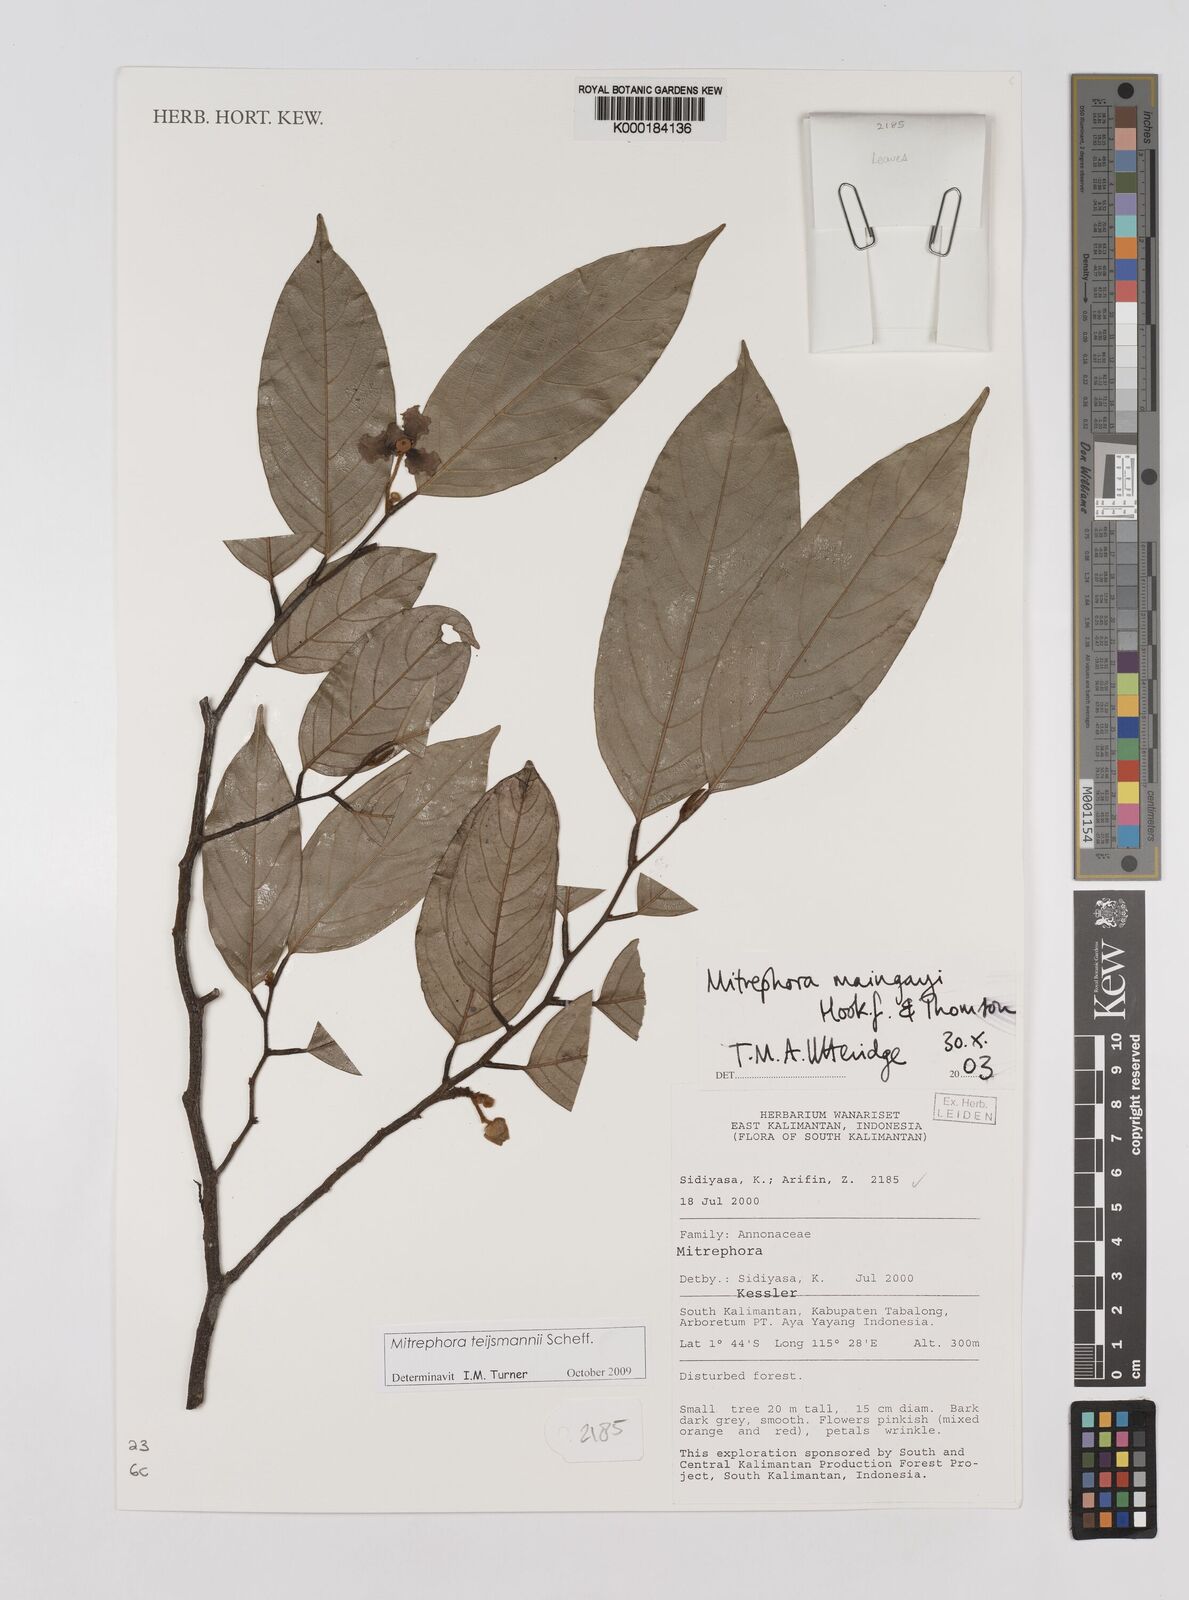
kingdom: Plantae
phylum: Tracheophyta
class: Magnoliopsida
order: Magnoliales
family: Annonaceae
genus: Mitrephora
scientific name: Mitrephora teysmannii
